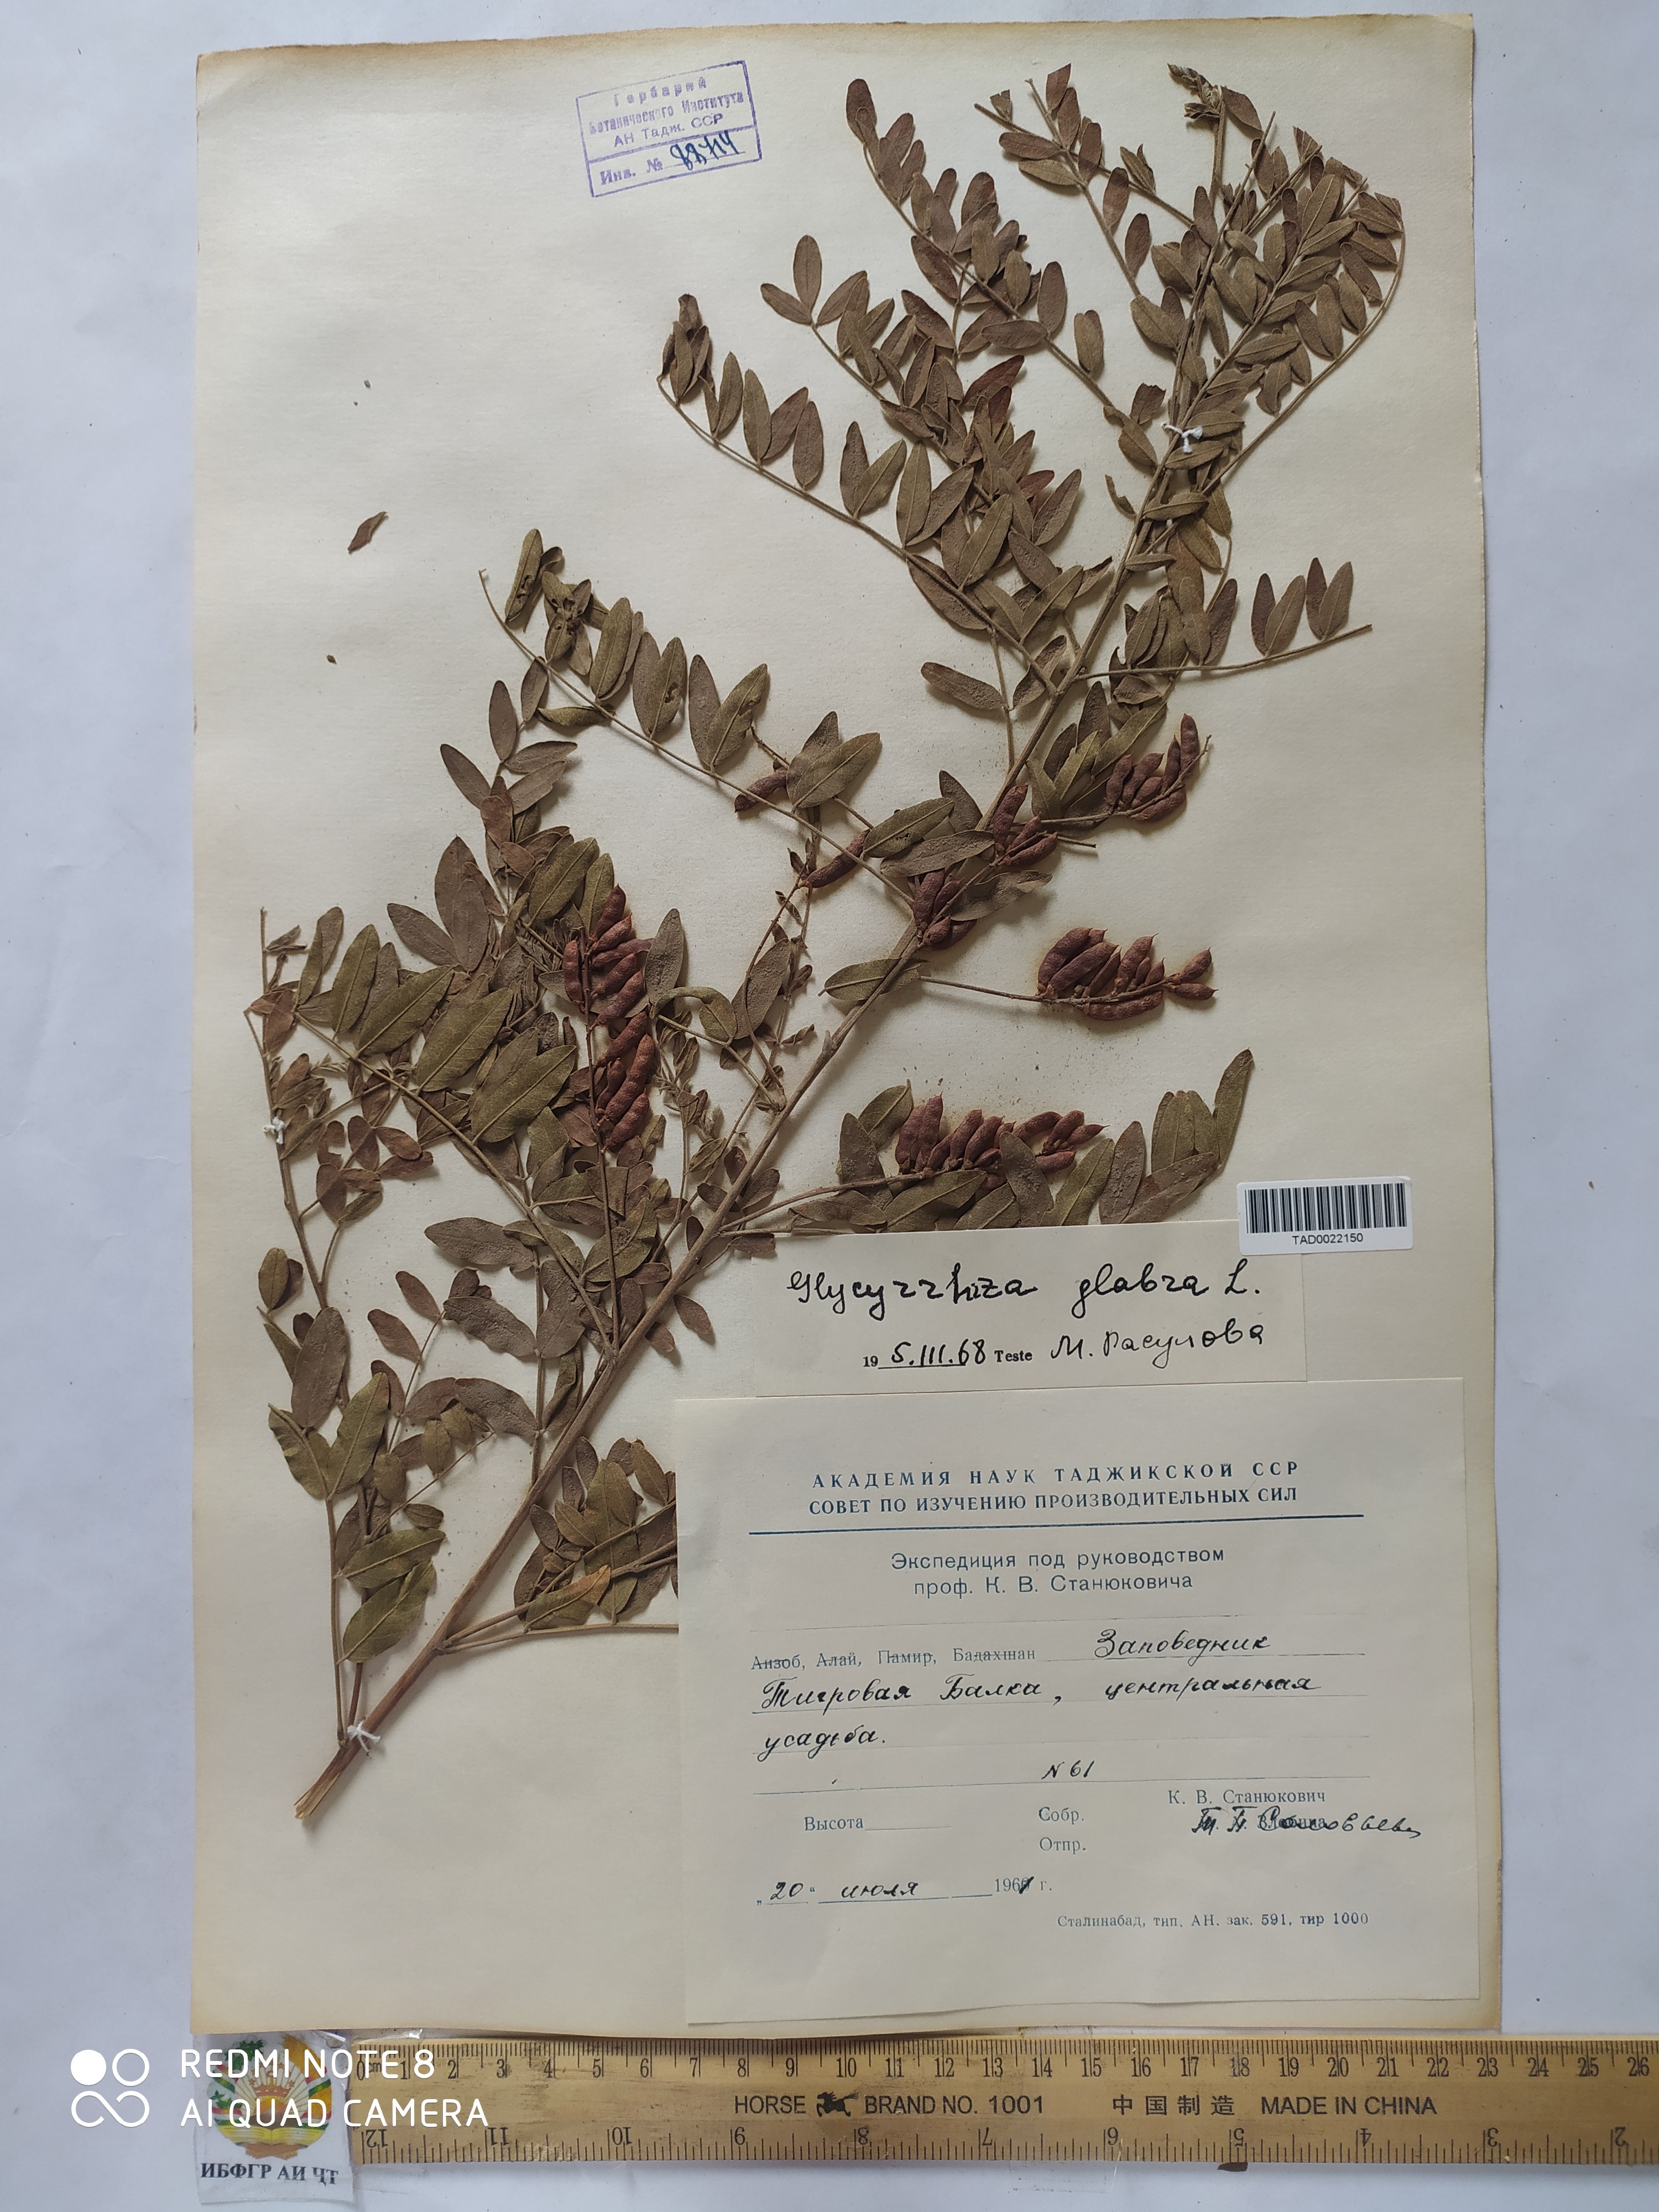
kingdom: Plantae
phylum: Tracheophyta
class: Magnoliopsida
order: Fabales
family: Fabaceae
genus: Glycyrrhiza
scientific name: Glycyrrhiza glabra
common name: Liquorice
